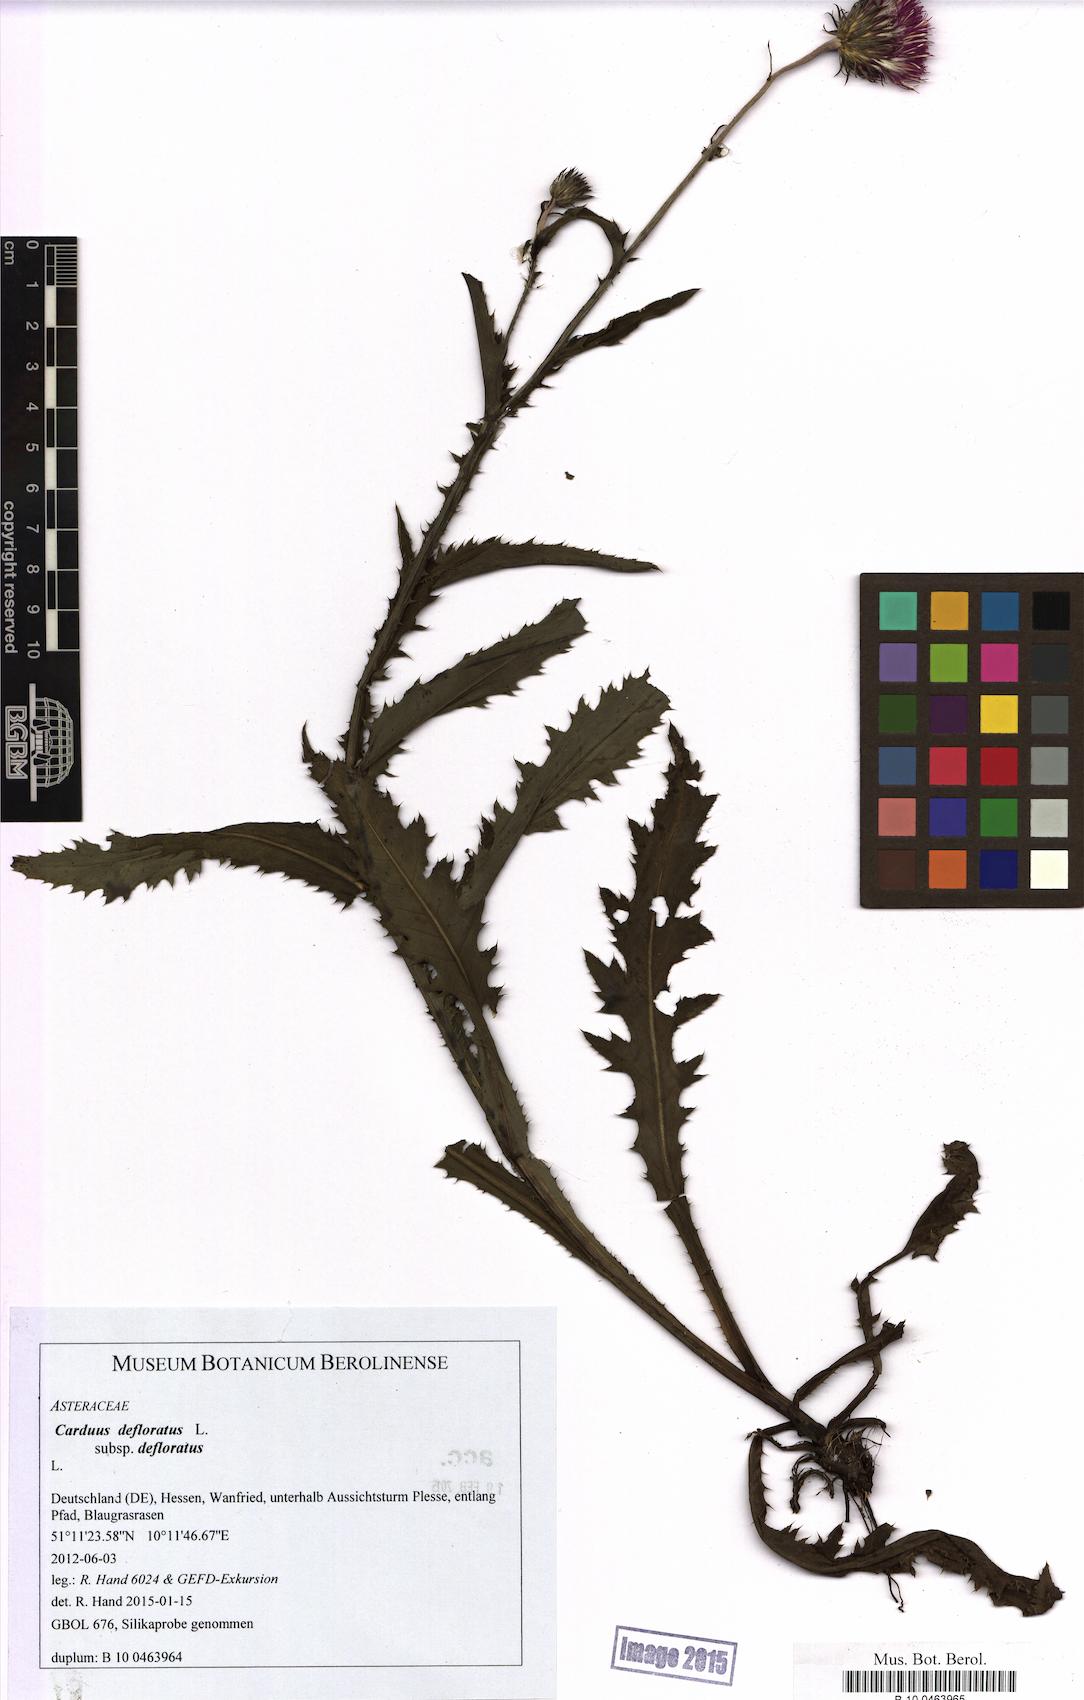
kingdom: Plantae
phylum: Tracheophyta
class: Magnoliopsida
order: Asterales
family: Asteraceae
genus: Carduus
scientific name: Carduus defloratus
